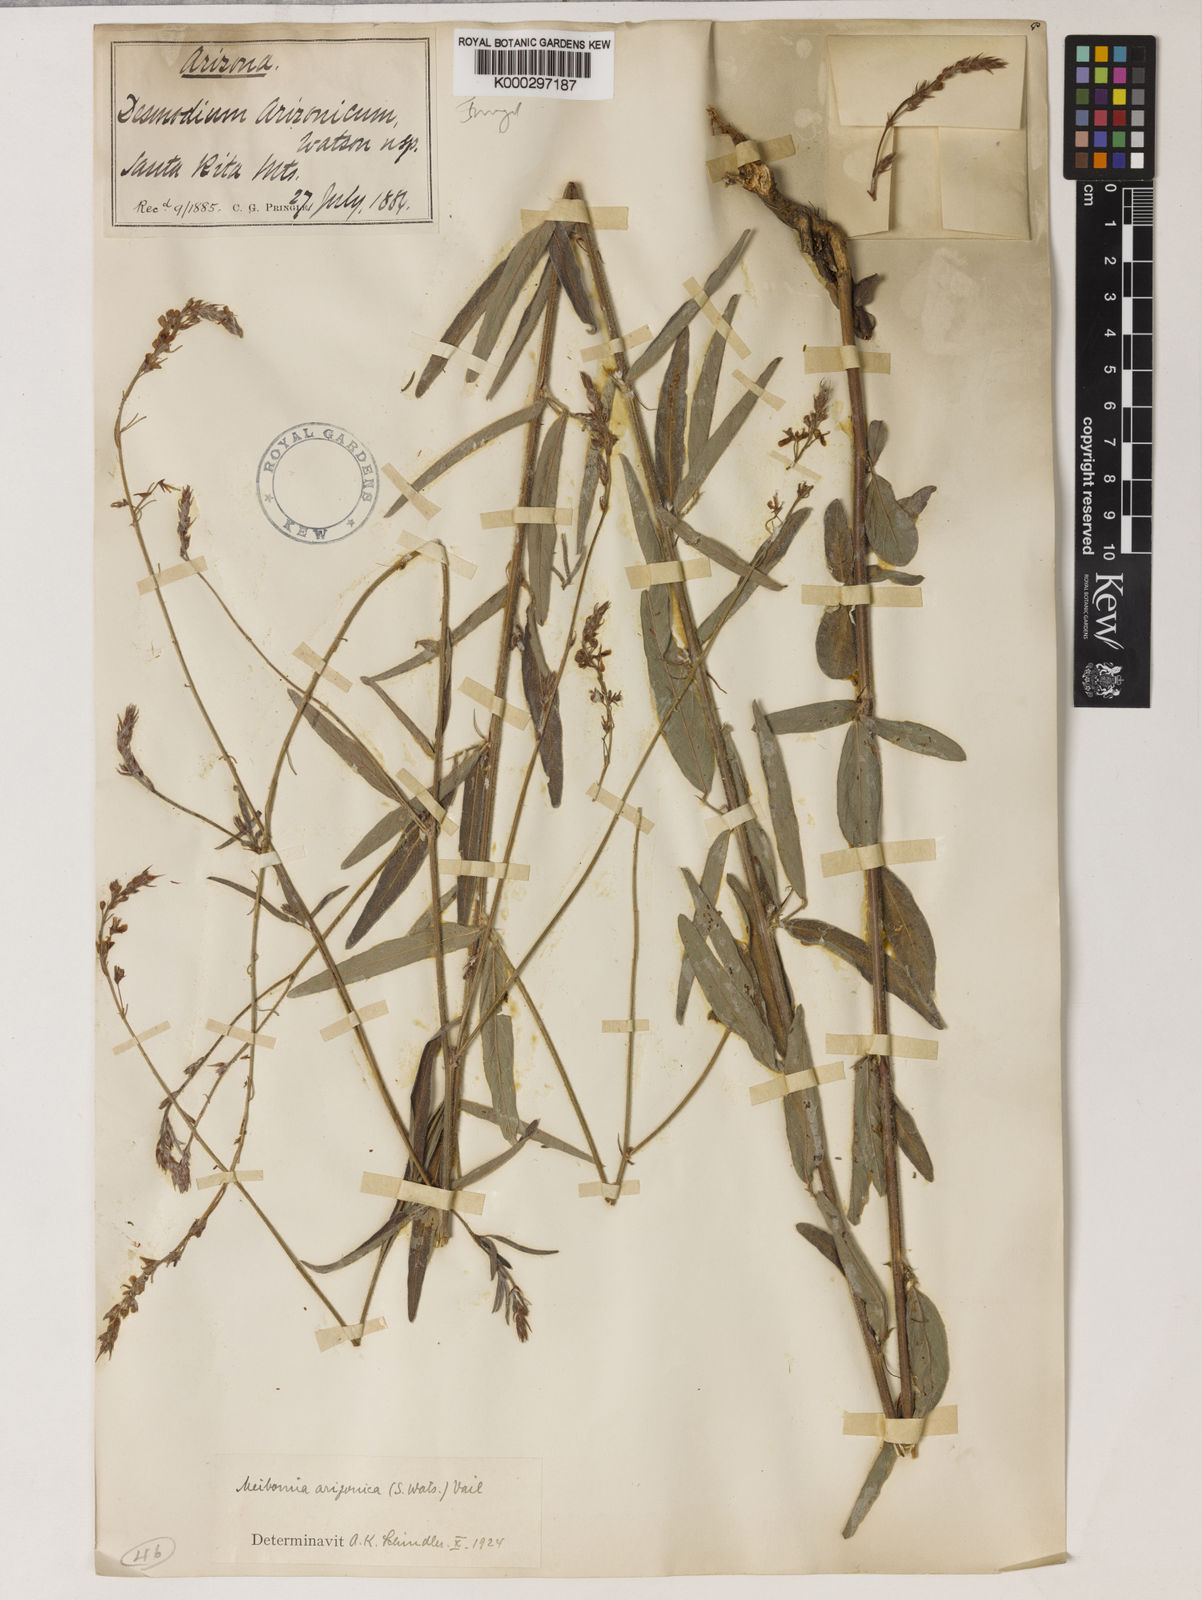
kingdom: Plantae
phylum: Tracheophyta
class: Magnoliopsida
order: Fabales
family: Fabaceae
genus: Desmodium
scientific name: Desmodium arizonicum
